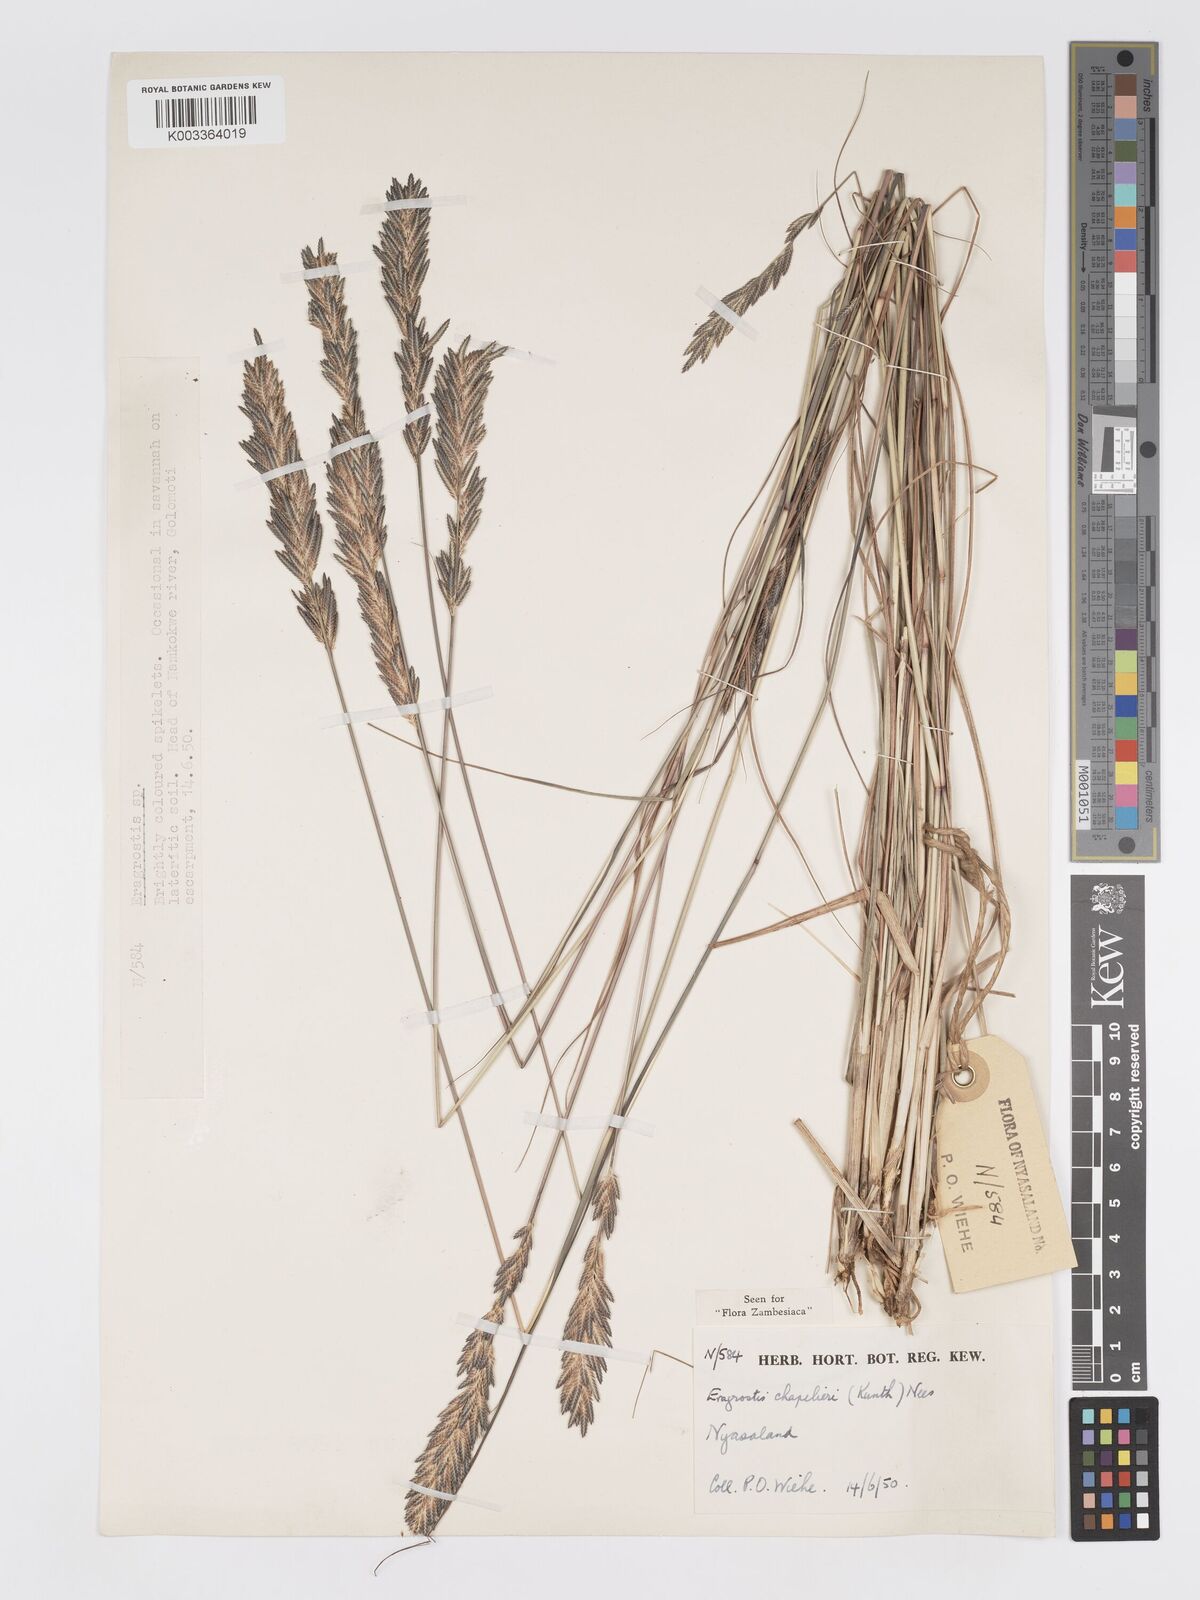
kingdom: Plantae
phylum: Tracheophyta
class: Liliopsida
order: Poales
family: Poaceae
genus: Eragrostis
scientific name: Eragrostis chapelieri
